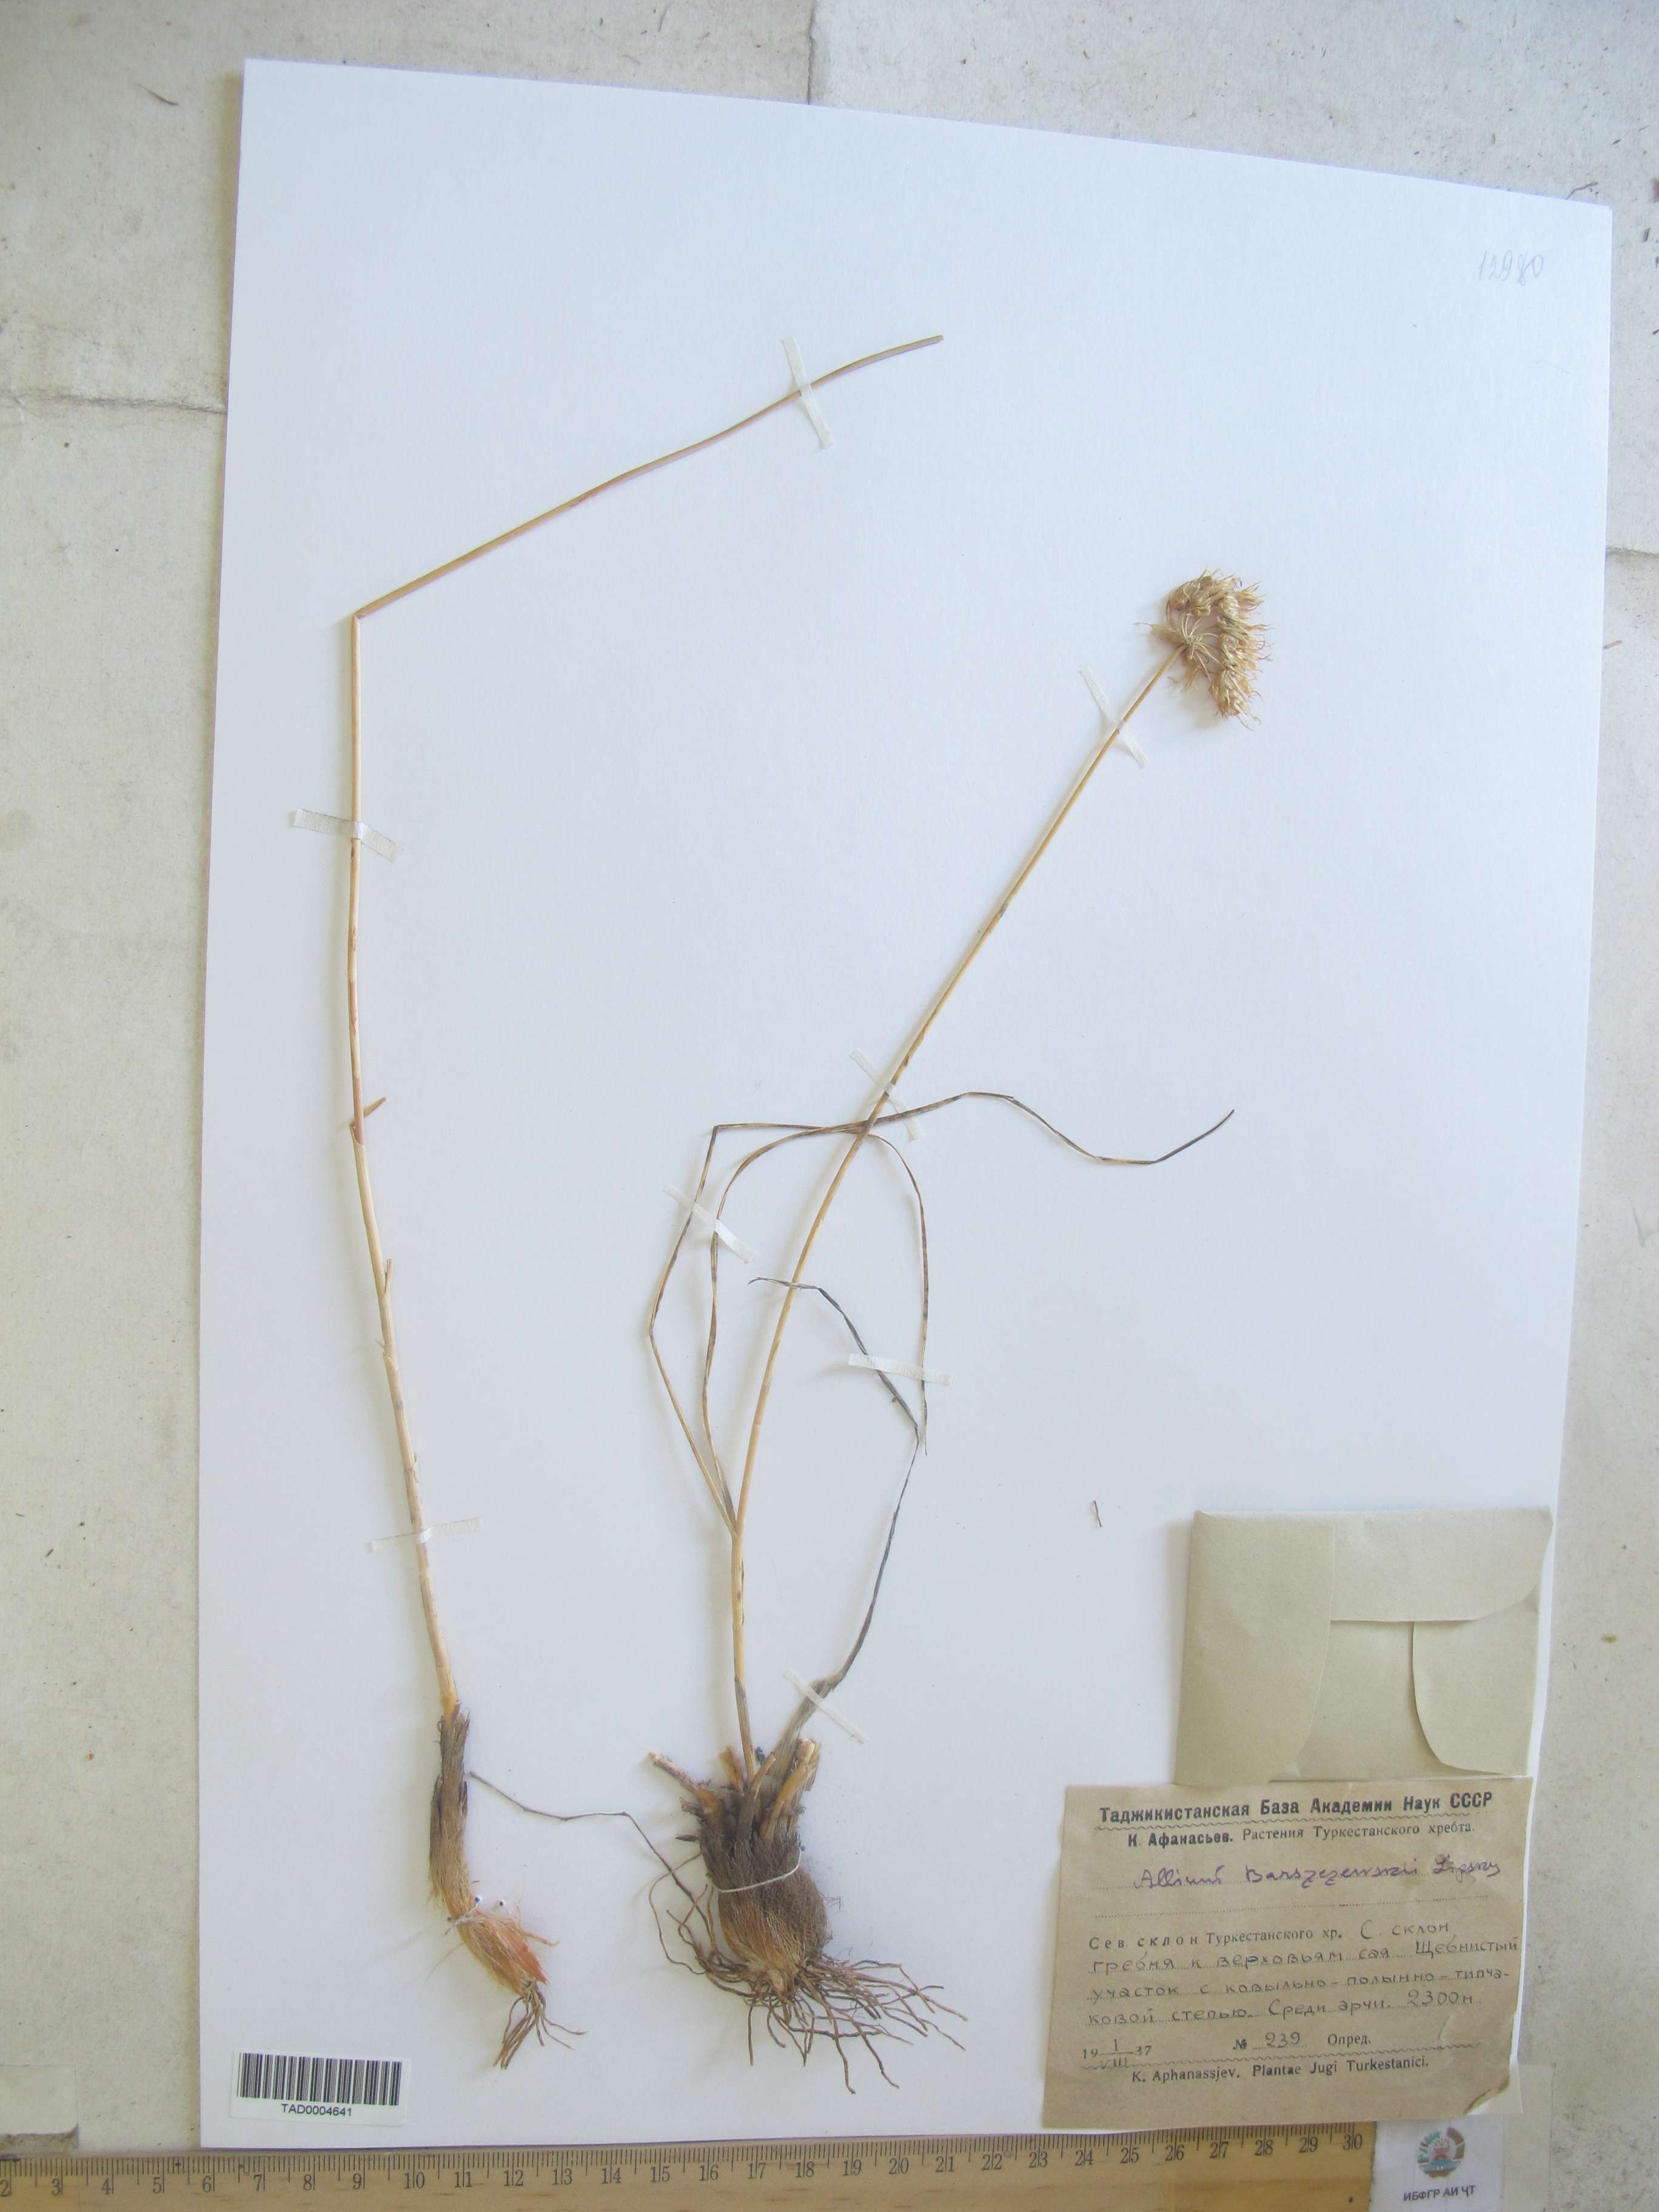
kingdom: Plantae
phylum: Tracheophyta
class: Liliopsida
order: Asparagales
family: Amaryllidaceae
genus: Allium
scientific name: Allium barsczewskii
